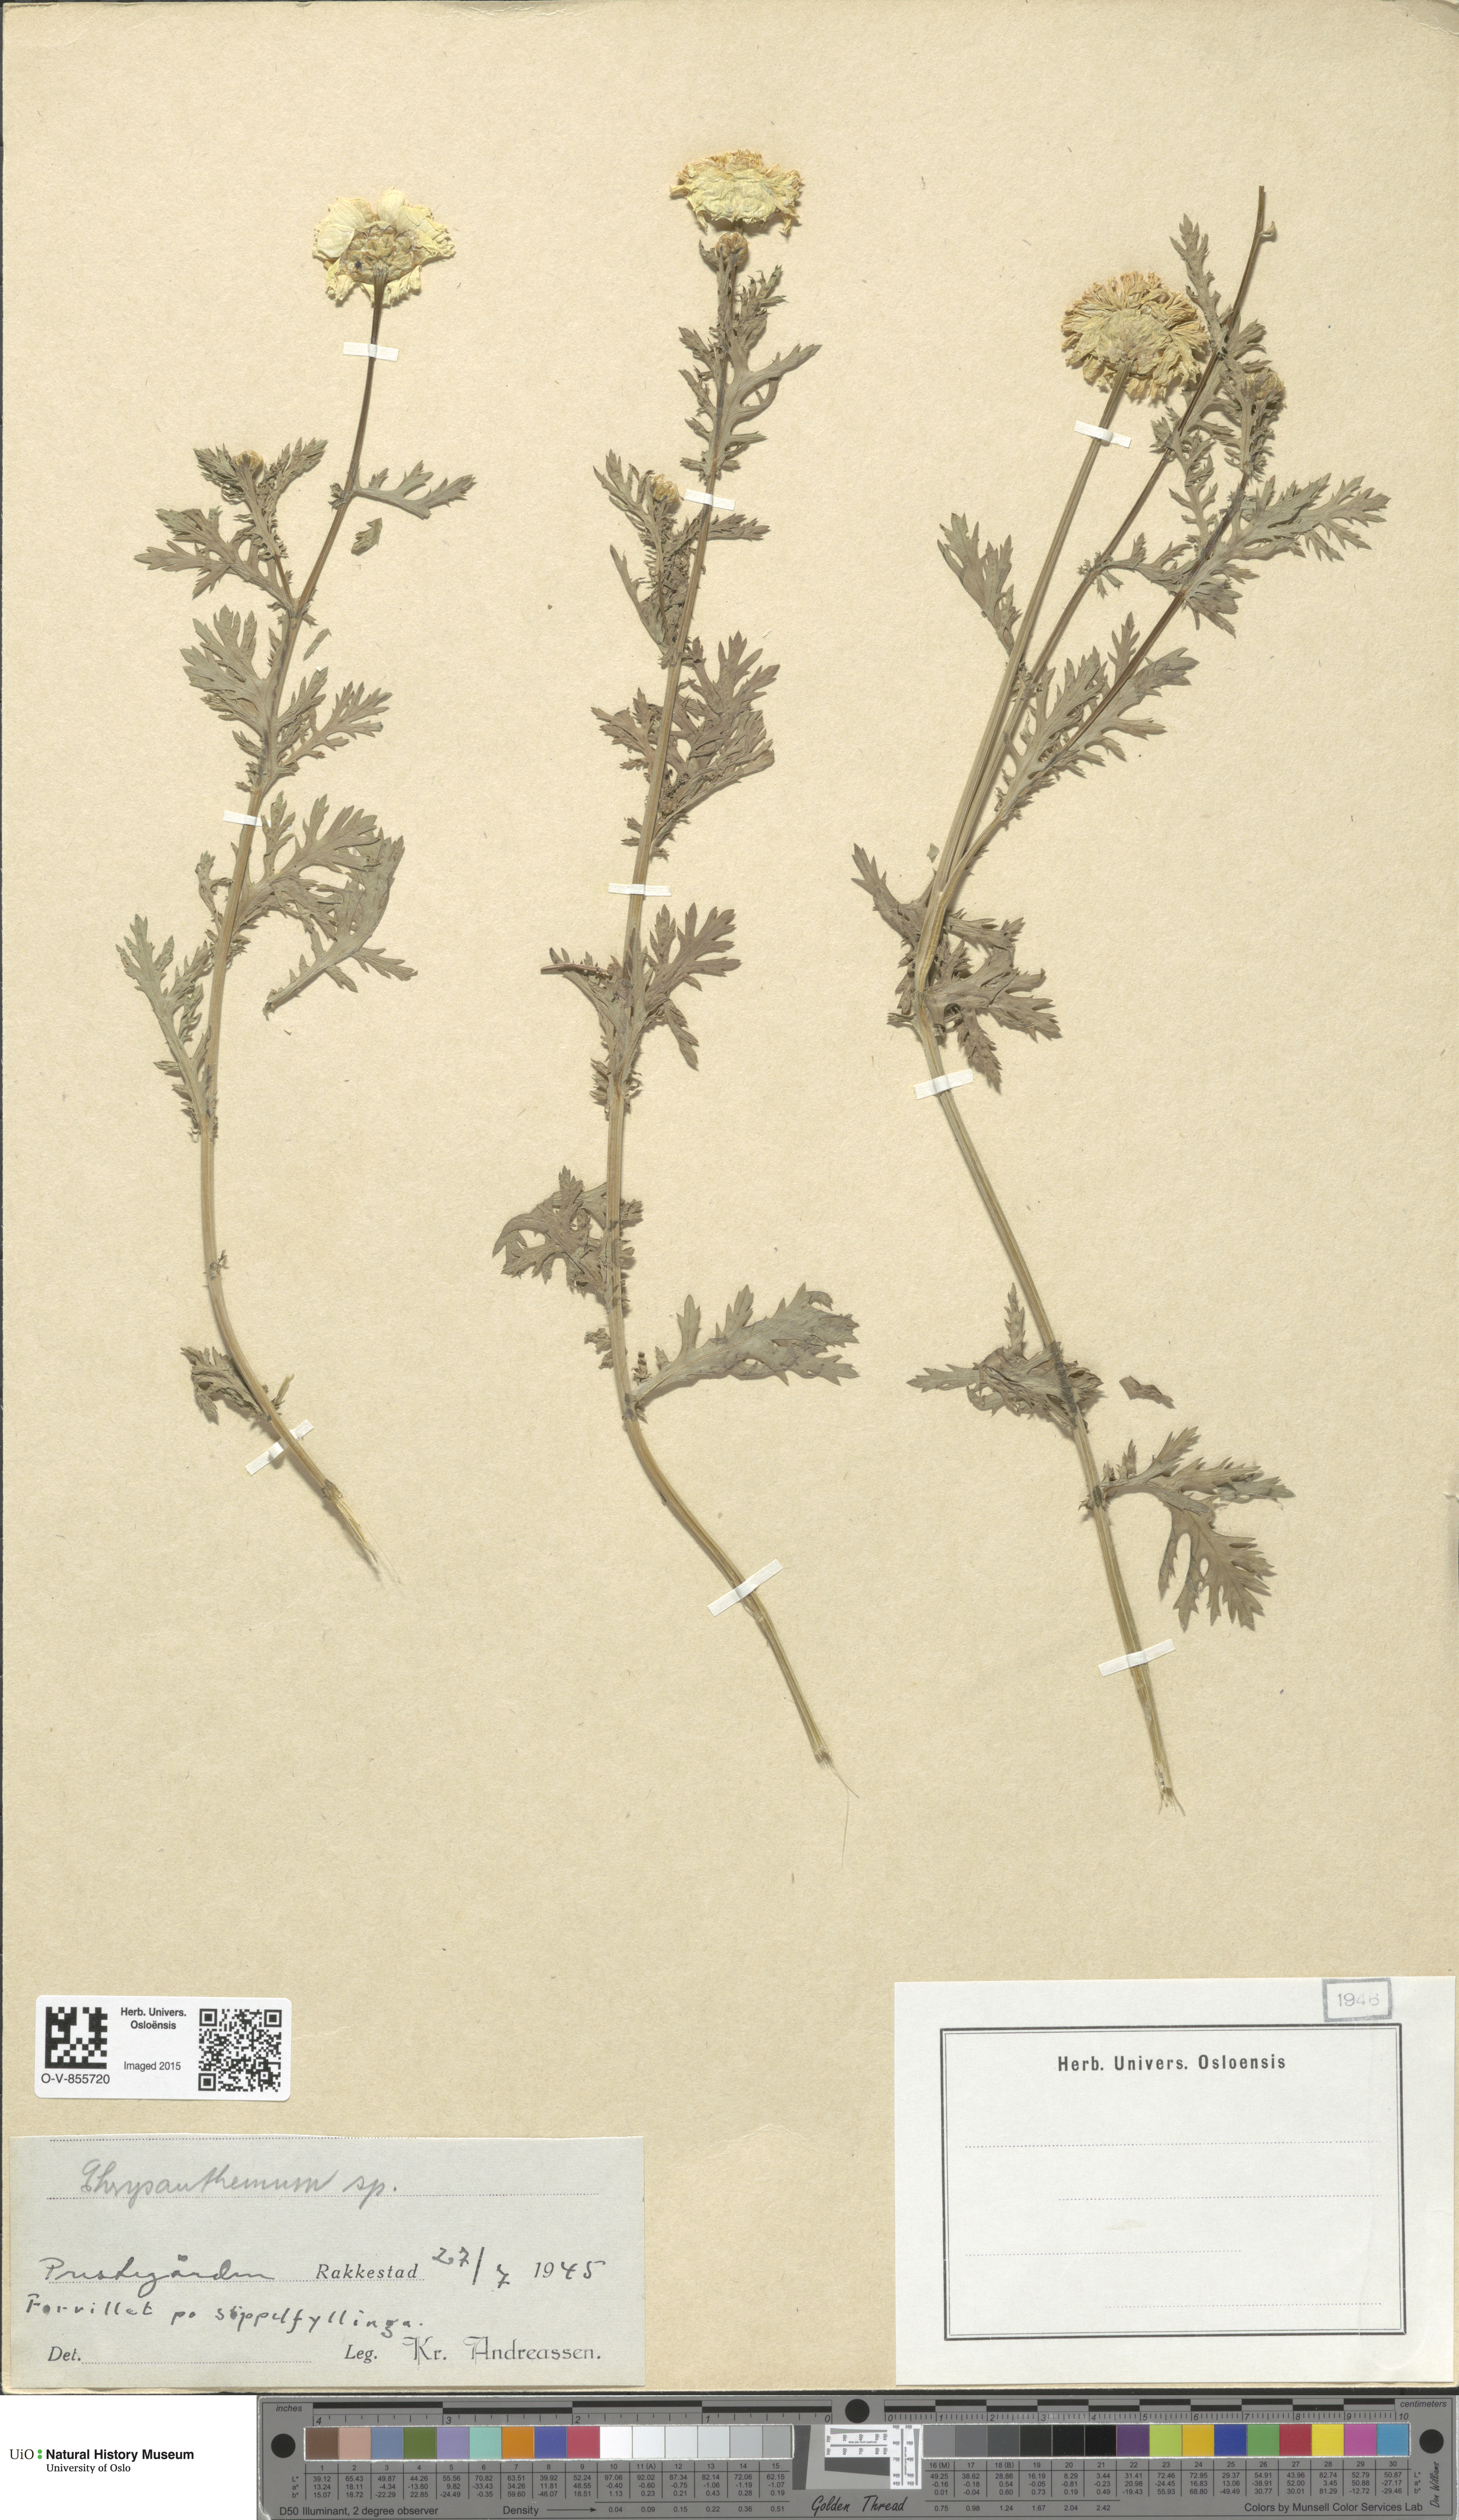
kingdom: Plantae
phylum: Tracheophyta
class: Magnoliopsida
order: Asterales
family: Asteraceae
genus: Chrysanthemum
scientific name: Chrysanthemum
